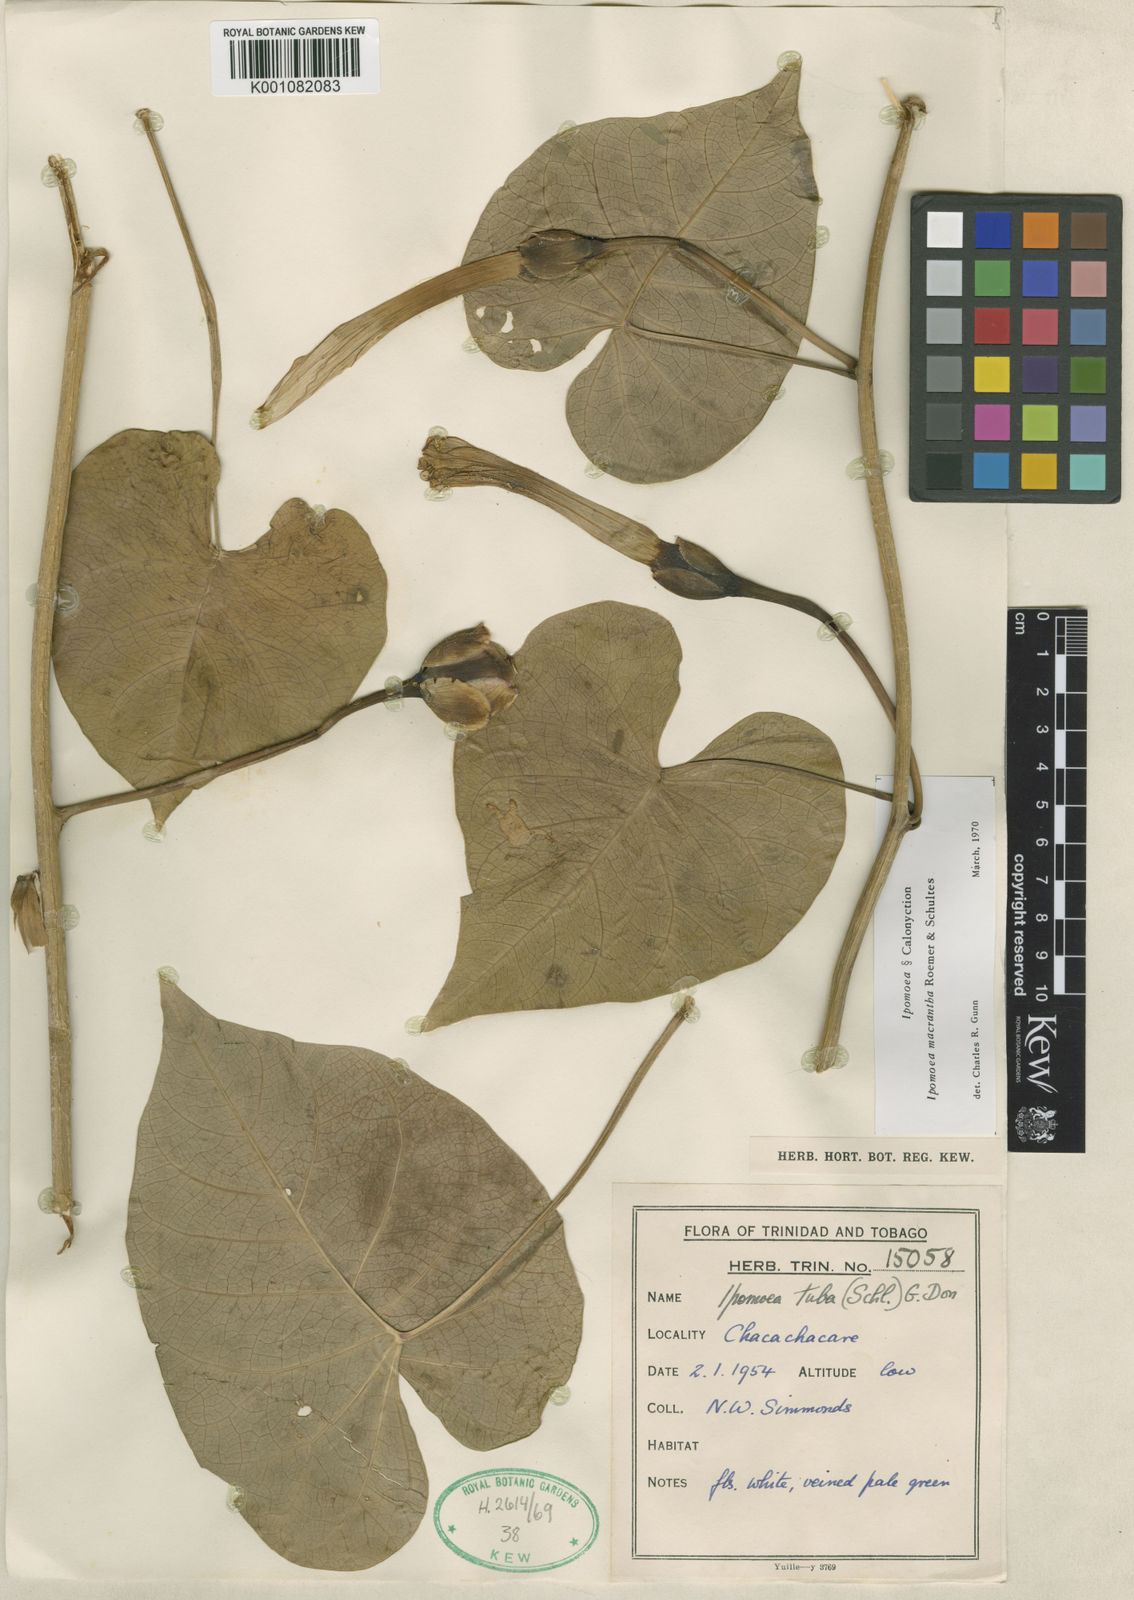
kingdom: Plantae
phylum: Tracheophyta
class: Magnoliopsida
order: Solanales
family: Convolvulaceae
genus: Ipomoea
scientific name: Ipomoea violacea
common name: Beach moonflower
